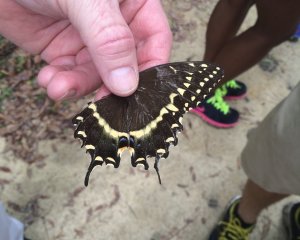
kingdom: Animalia
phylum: Arthropoda
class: Insecta
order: Lepidoptera
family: Papilionidae
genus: Pterourus
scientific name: Pterourus palamedes
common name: Palamedes Swallowtail
